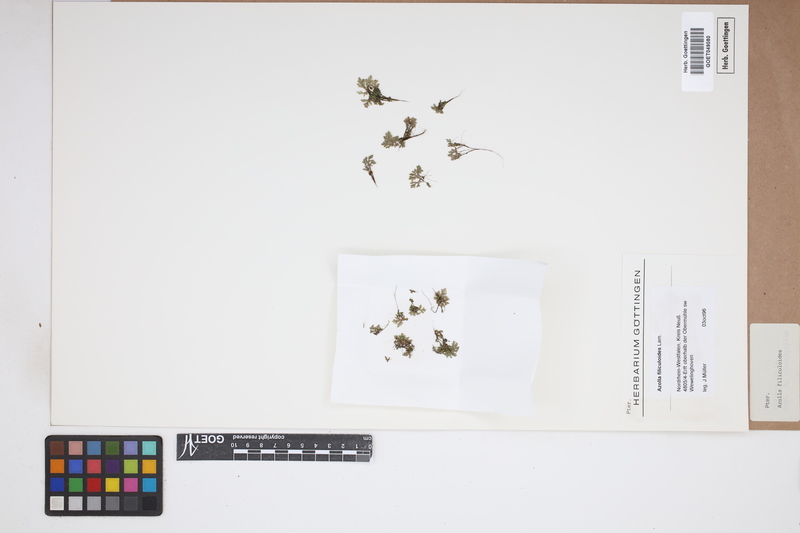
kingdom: Plantae
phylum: Tracheophyta
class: Polypodiopsida
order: Salviniales
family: Salviniaceae
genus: Azolla
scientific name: Azolla filiculoides
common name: Water fern
